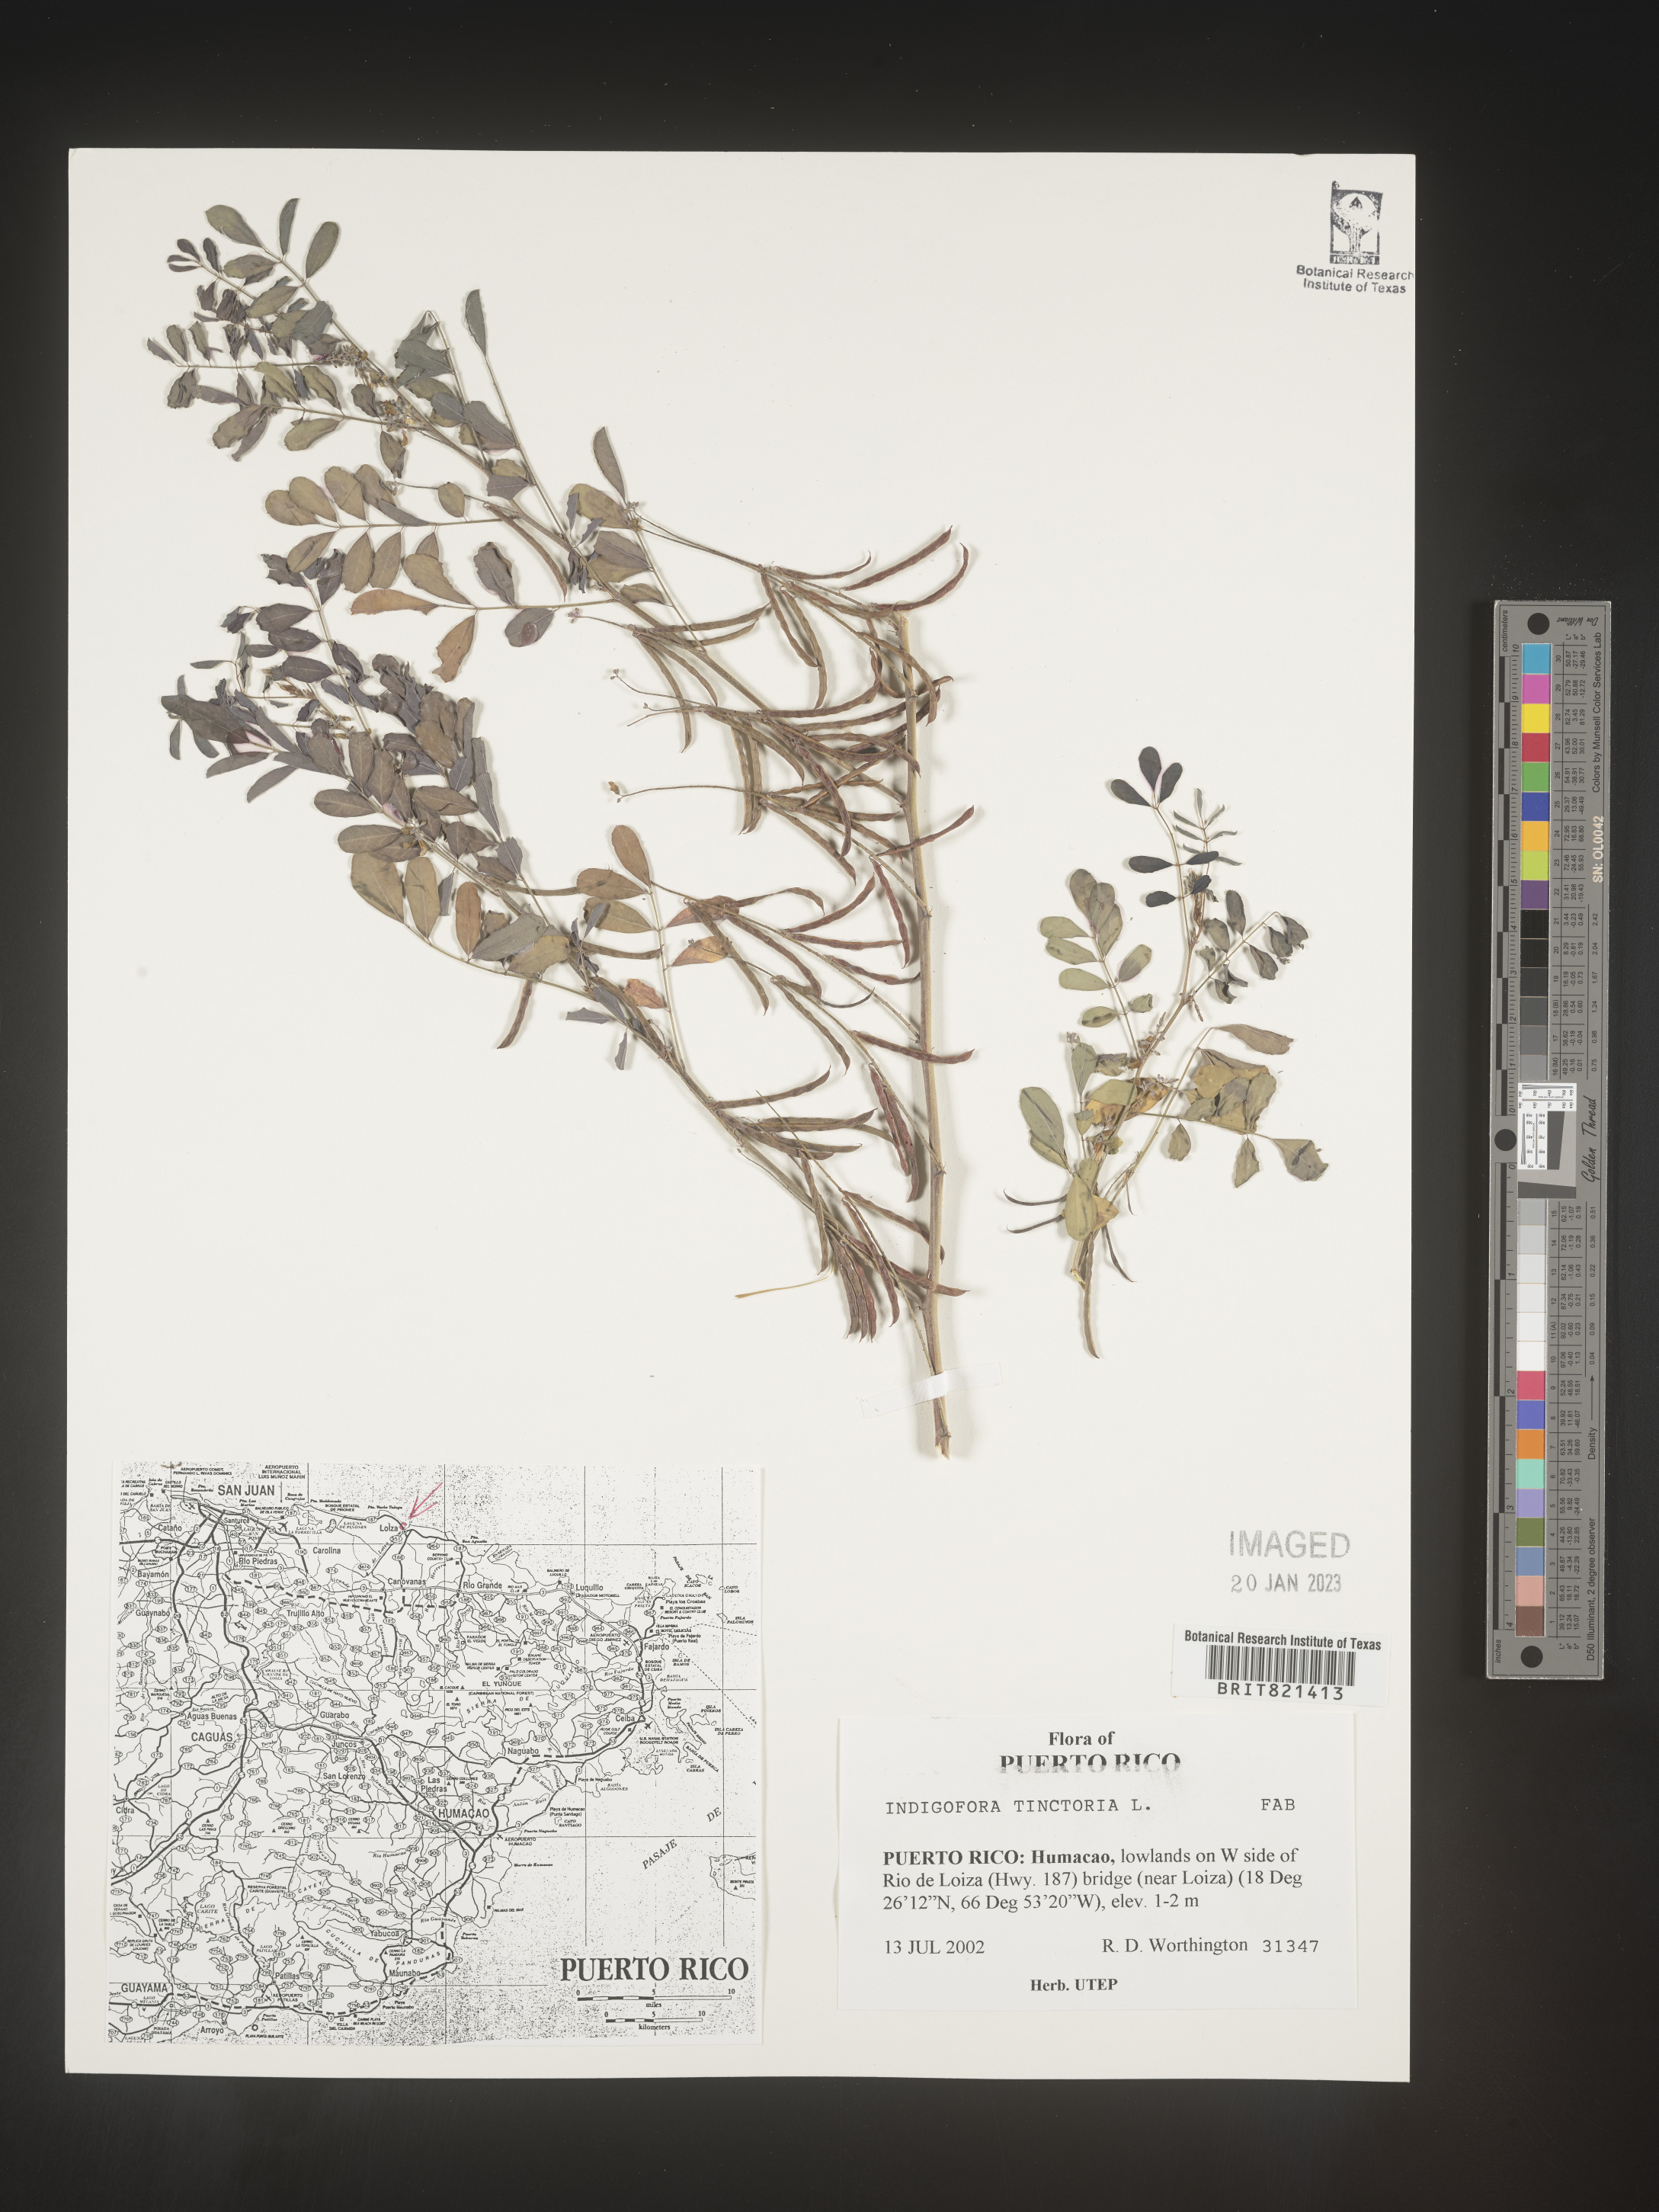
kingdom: Plantae
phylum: Tracheophyta
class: Magnoliopsida
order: Fabales
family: Fabaceae
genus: Indigofera
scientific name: Indigofera
